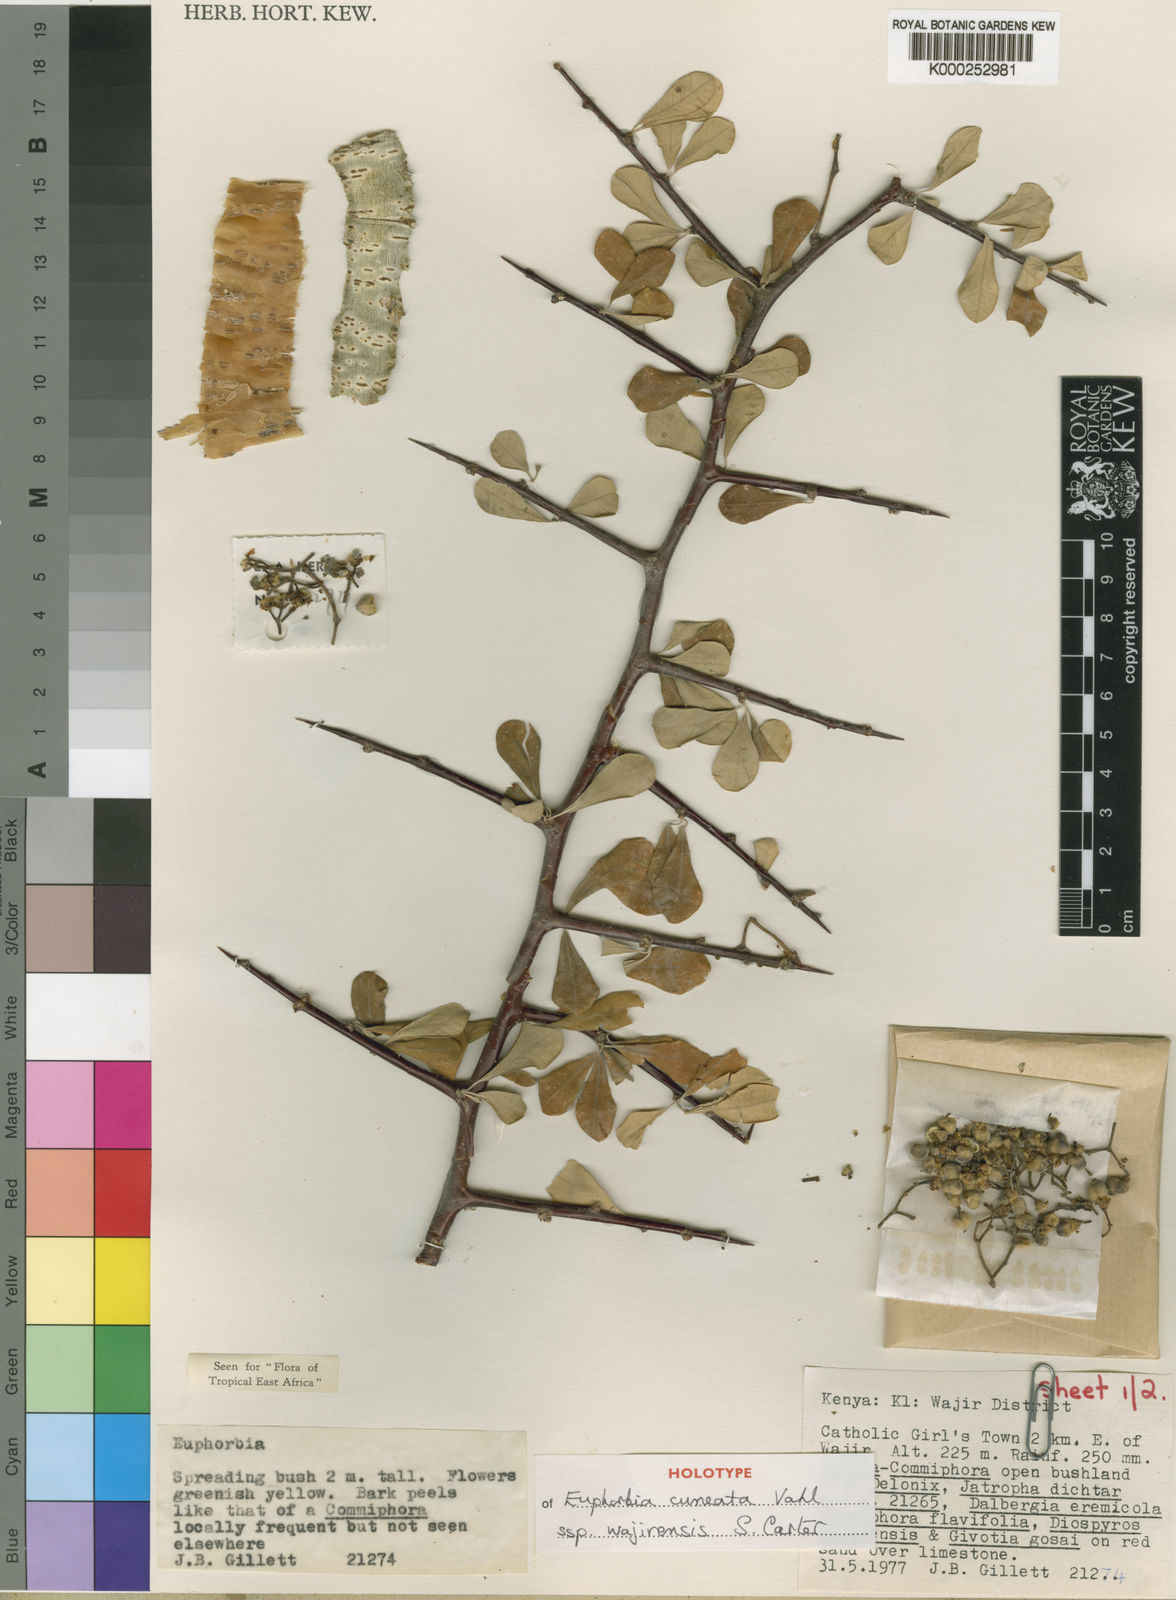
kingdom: Plantae
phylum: Tracheophyta
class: Magnoliopsida
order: Malpighiales
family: Euphorbiaceae
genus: Euphorbia
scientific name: Euphorbia cuneata
